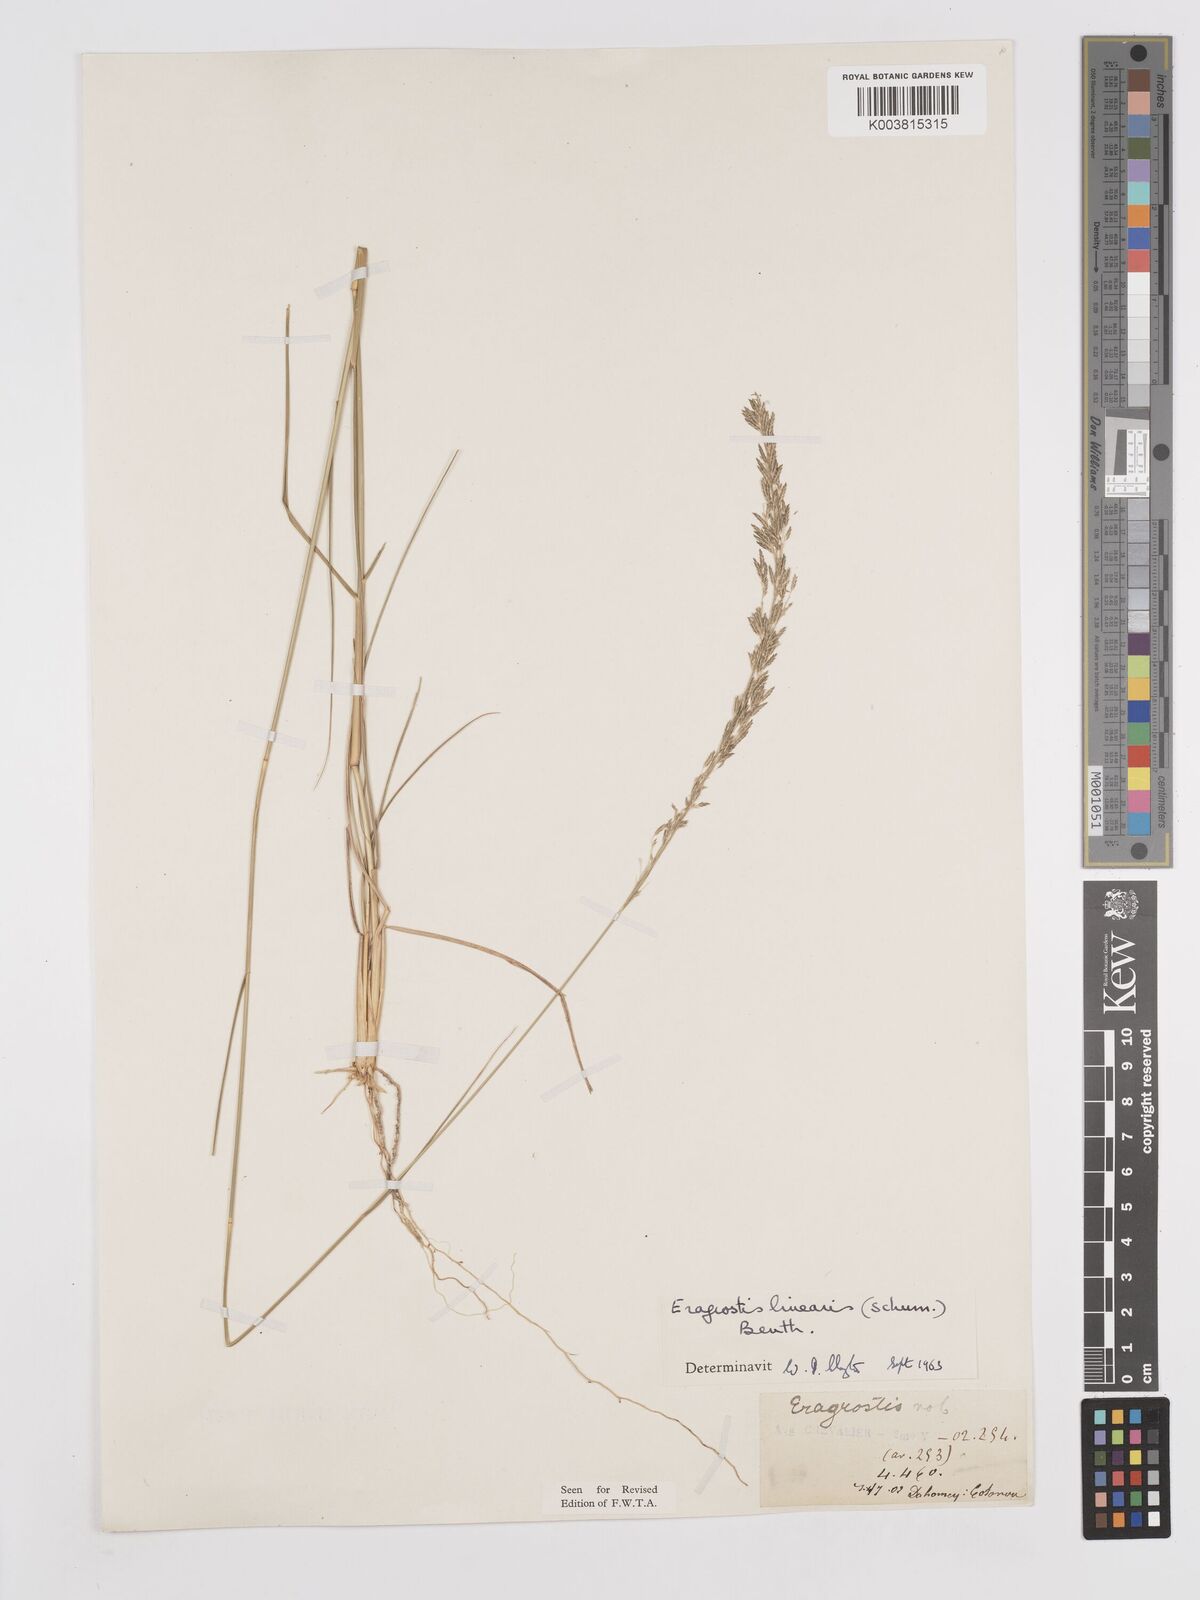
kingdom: Plantae
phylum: Tracheophyta
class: Liliopsida
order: Poales
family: Poaceae
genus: Eragrostis
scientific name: Eragrostis prolifera
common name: Dominican lovegrass
